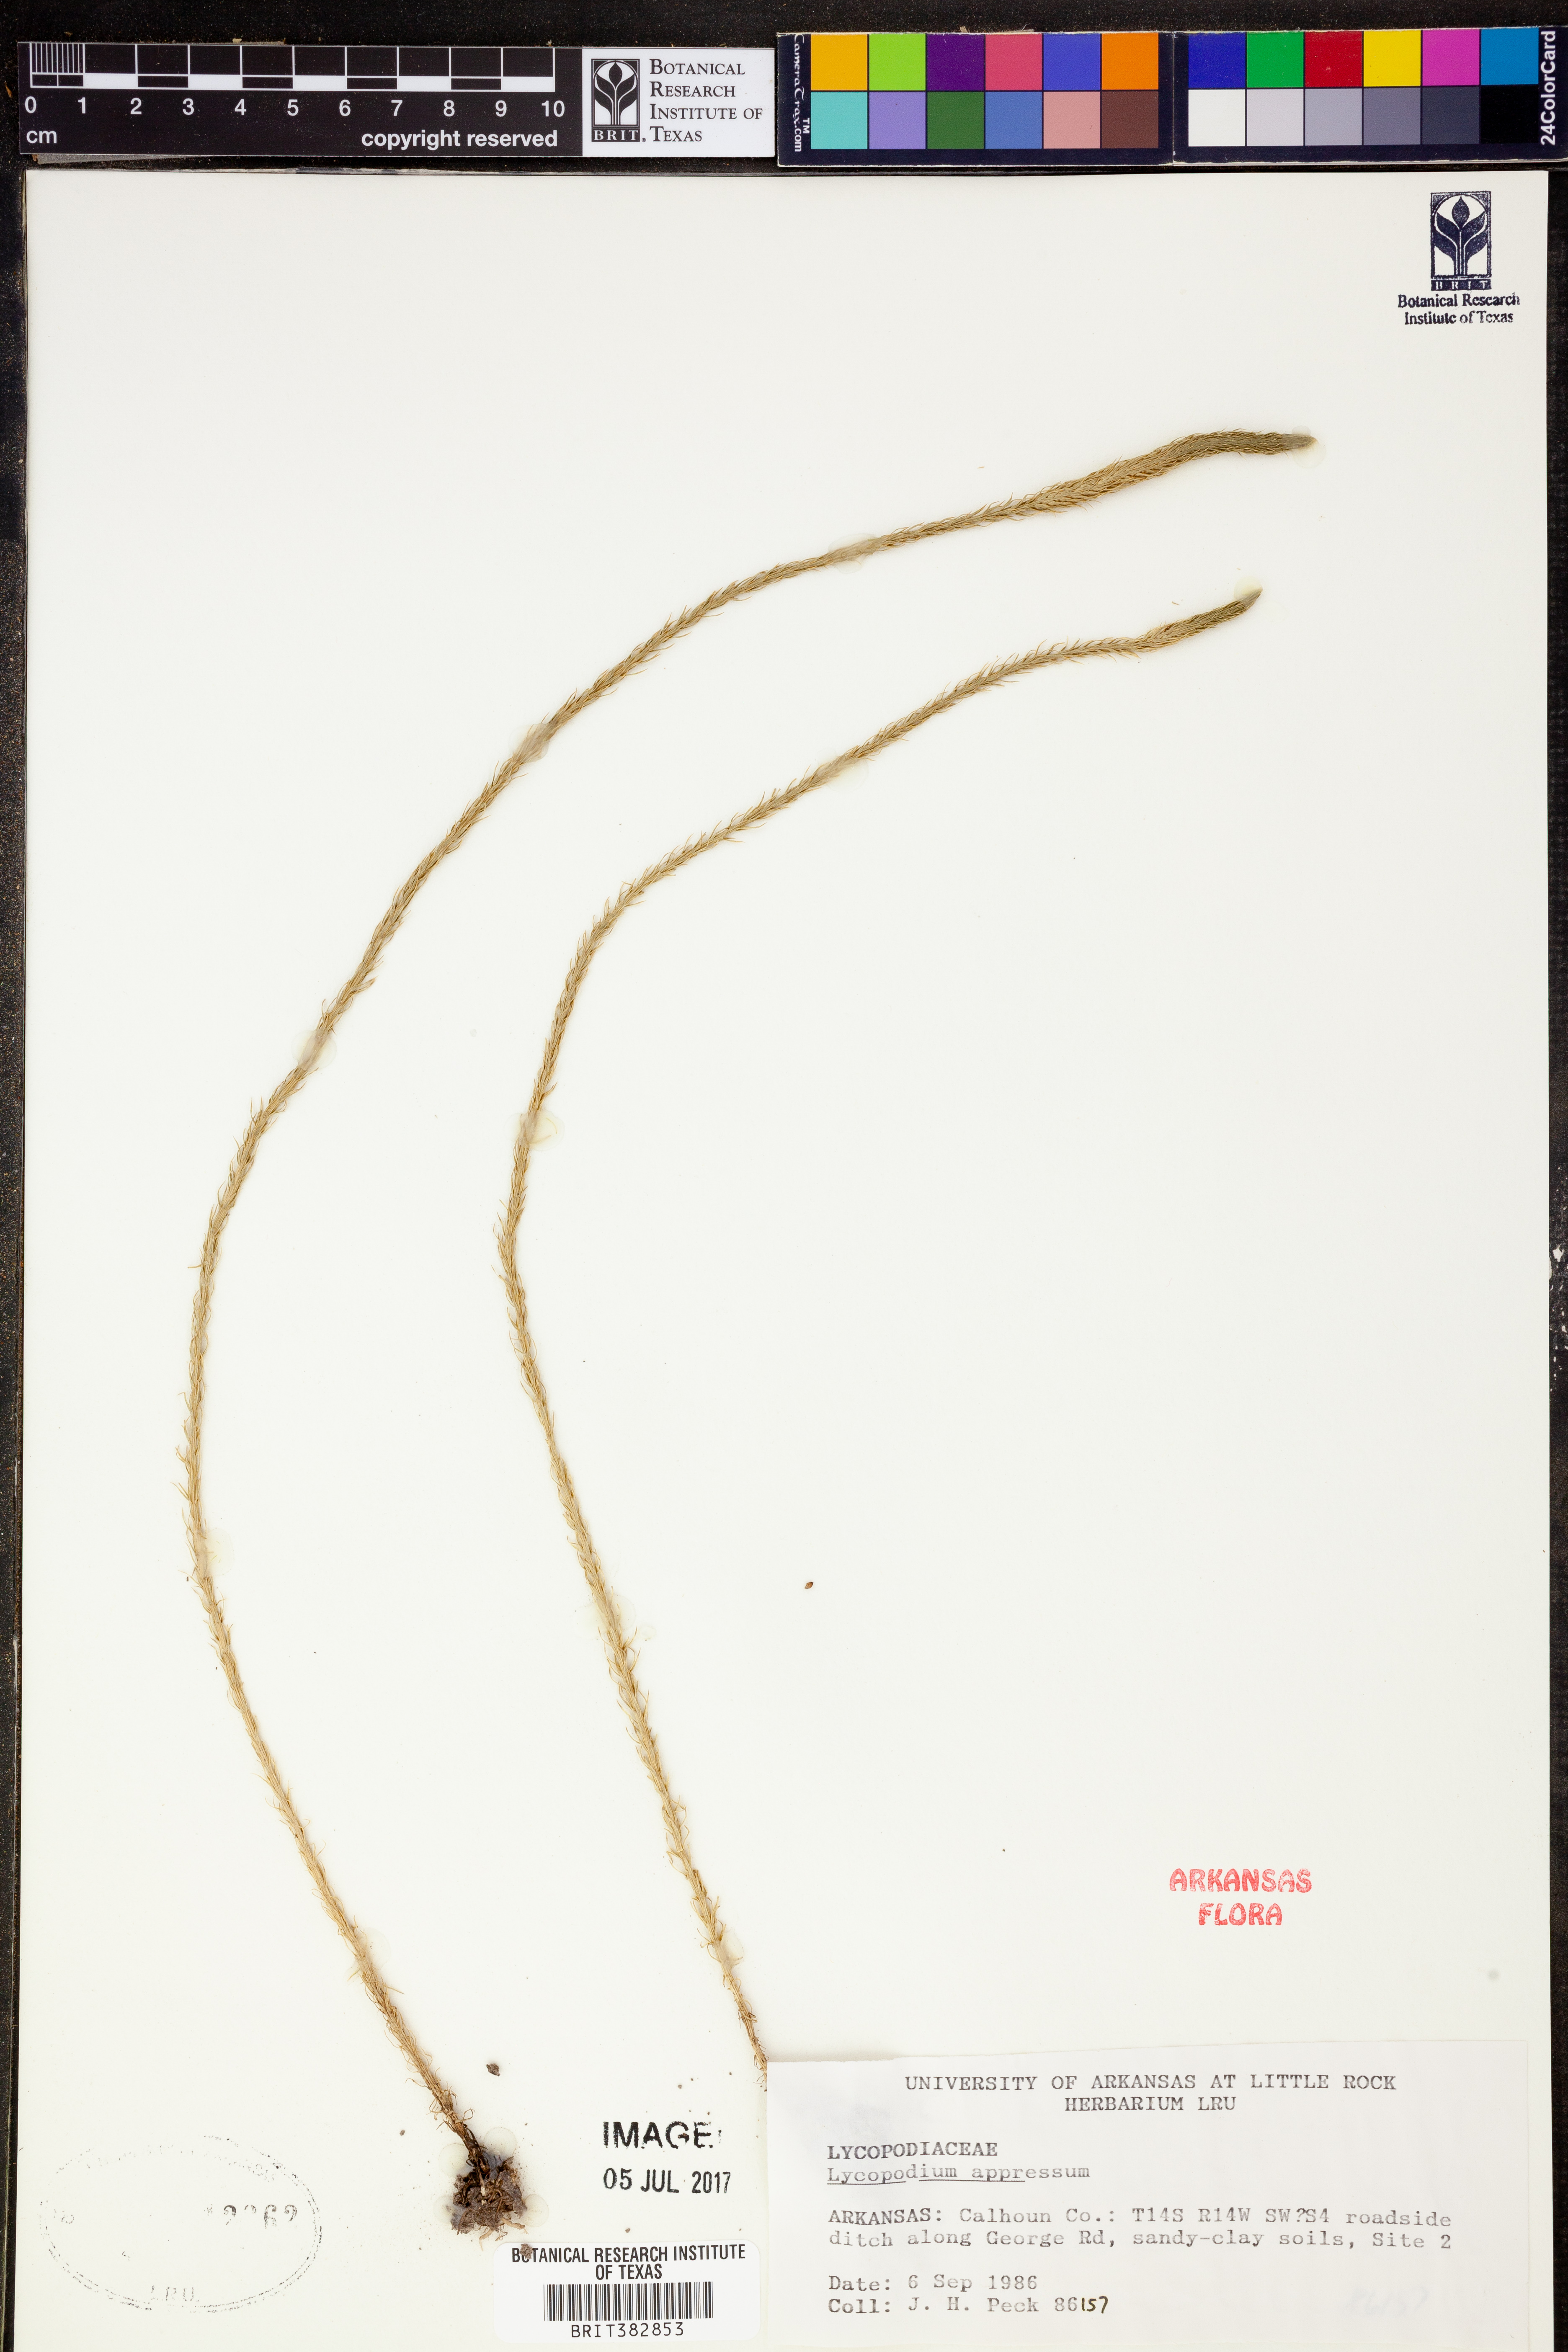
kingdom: Plantae
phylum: Tracheophyta
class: Lycopodiopsida
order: Lycopodiales
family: Lycopodiaceae
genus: Lycopodiella
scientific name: Lycopodiella appressa
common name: Appressed bog clubmoss
